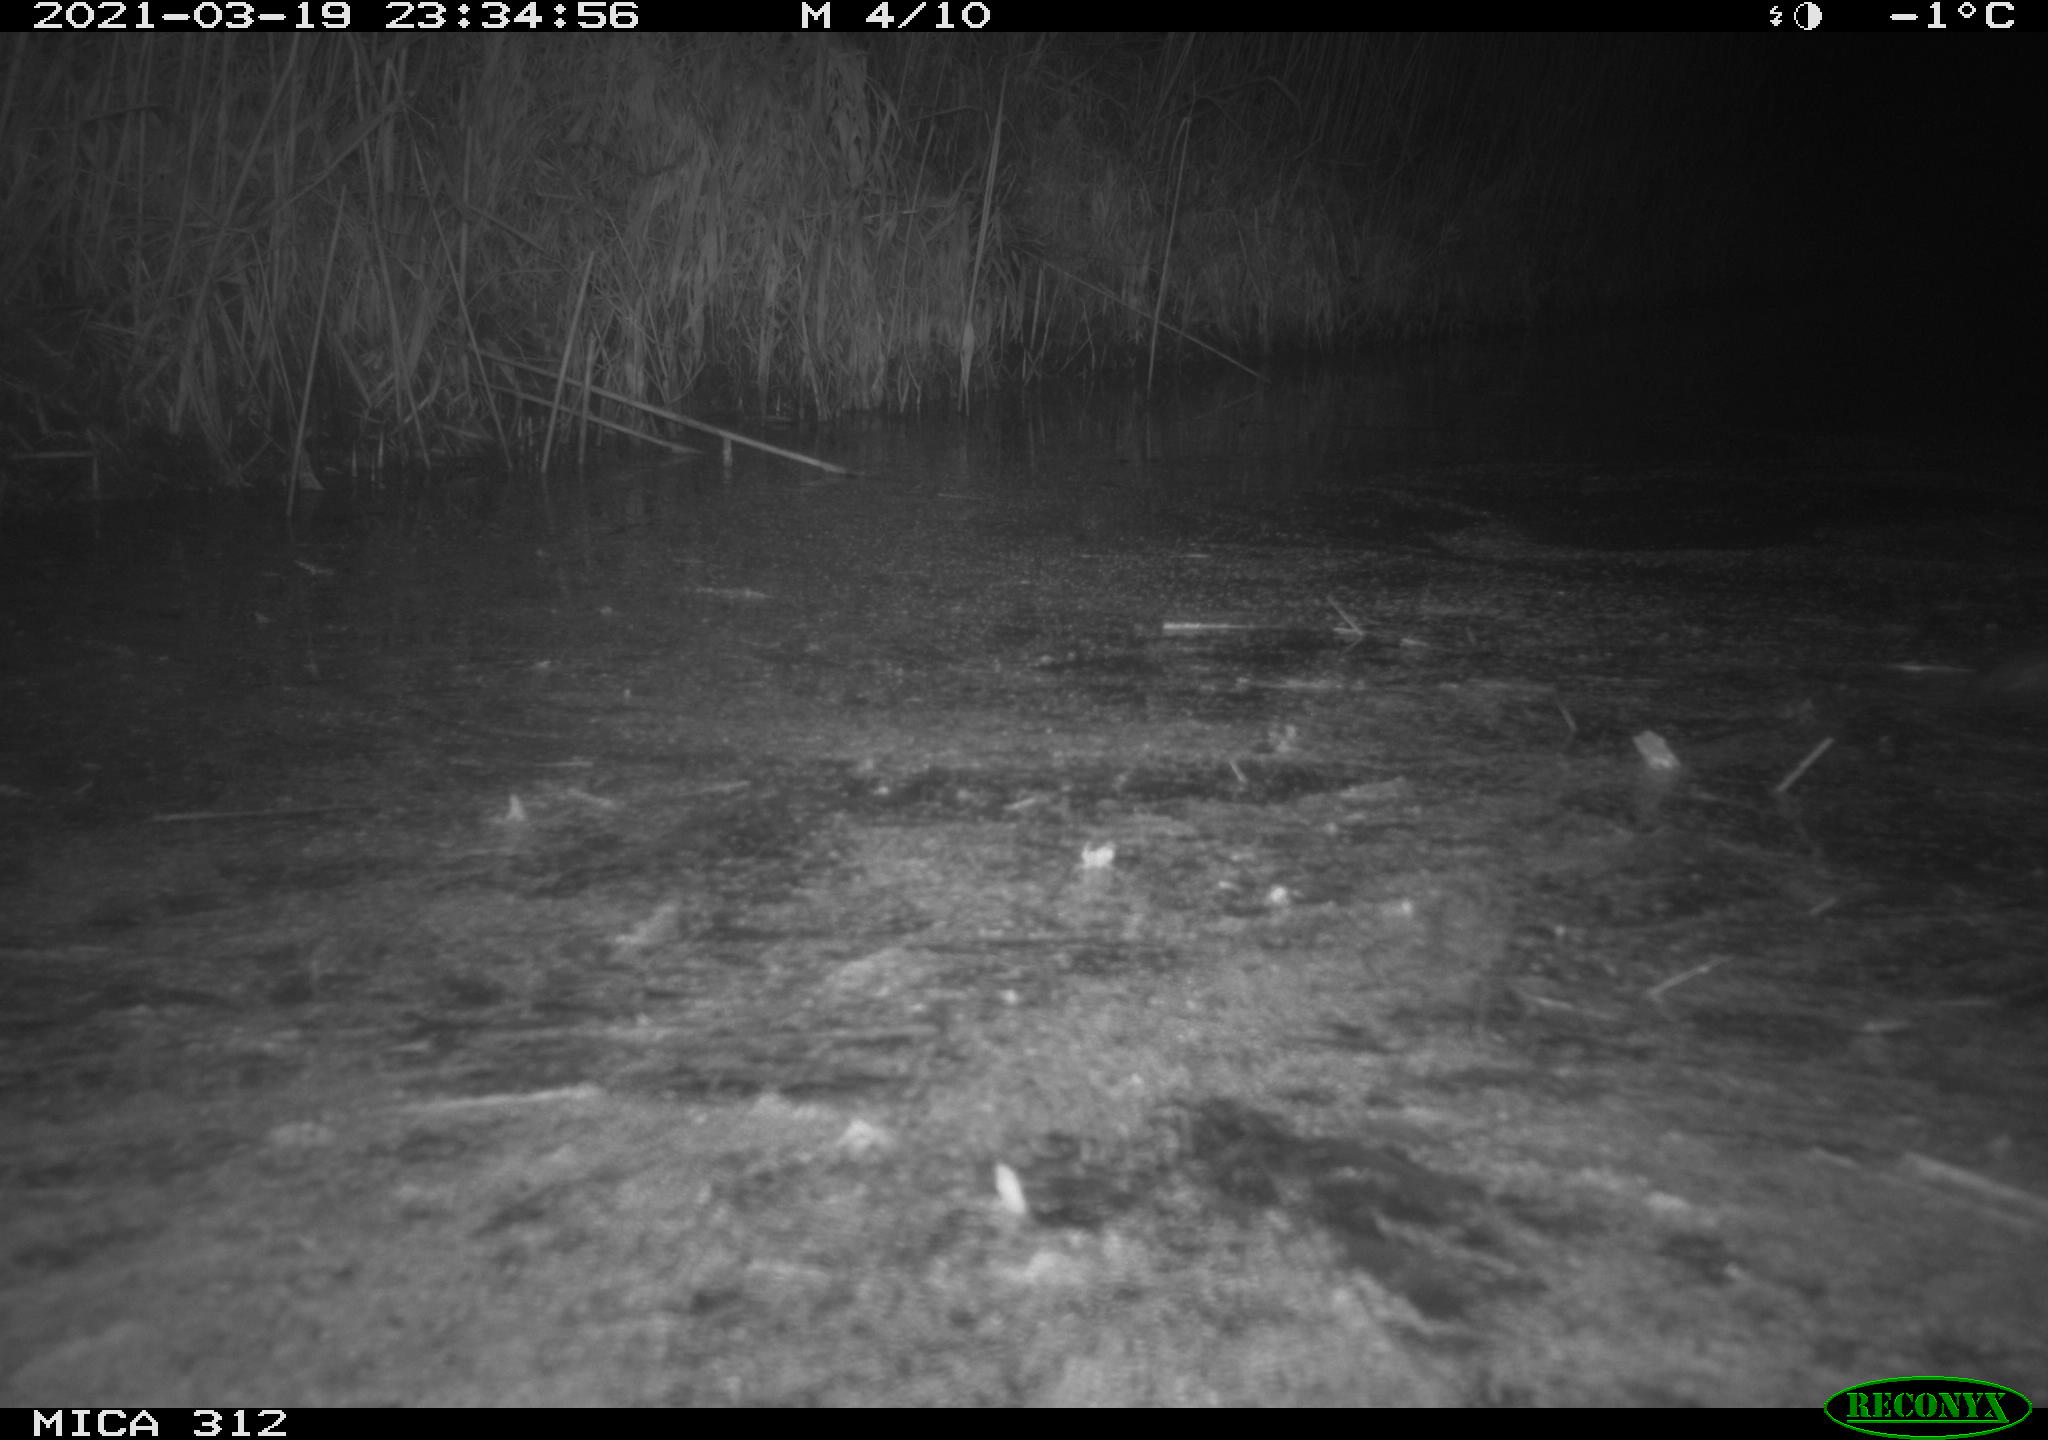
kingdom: Animalia
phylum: Chordata
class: Mammalia
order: Rodentia
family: Muridae
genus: Rattus
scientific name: Rattus norvegicus
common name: Brown rat
